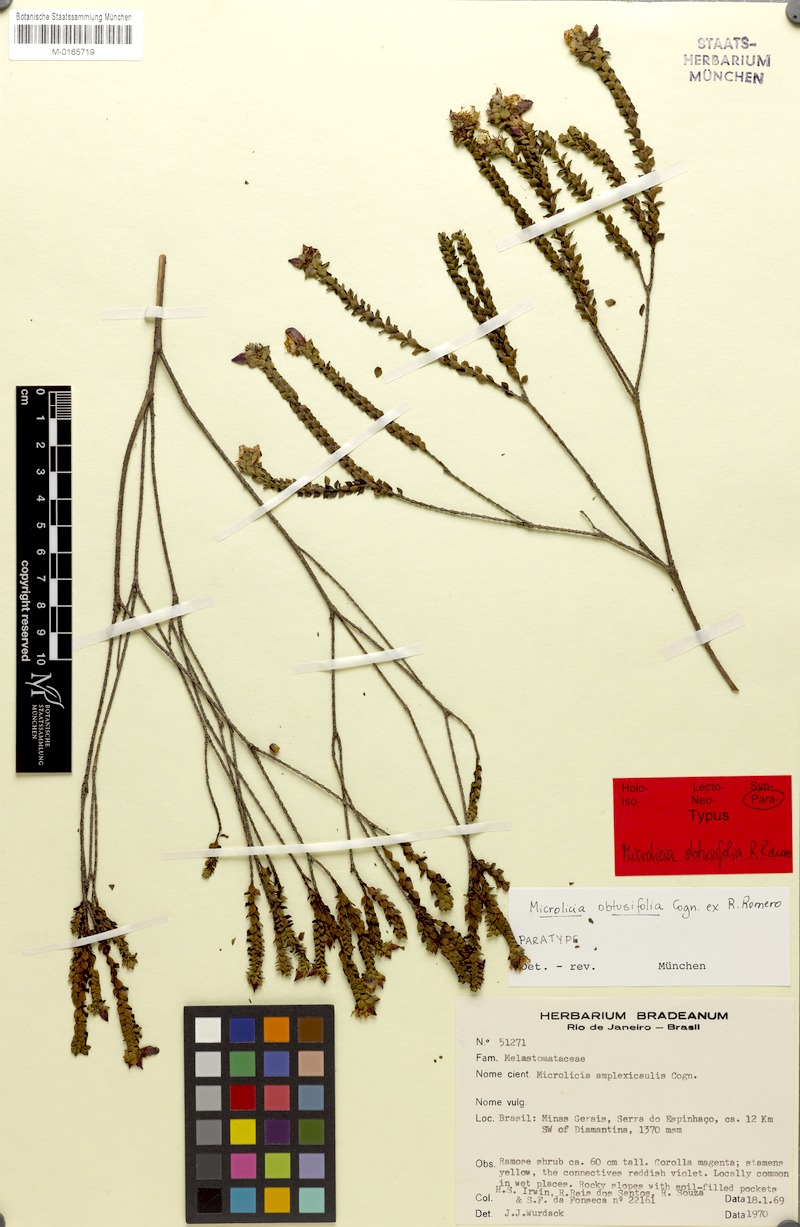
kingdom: Plantae
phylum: Tracheophyta
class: Magnoliopsida
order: Myrtales
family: Melastomataceae
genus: Microlicia
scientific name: Microlicia obtusifolia
